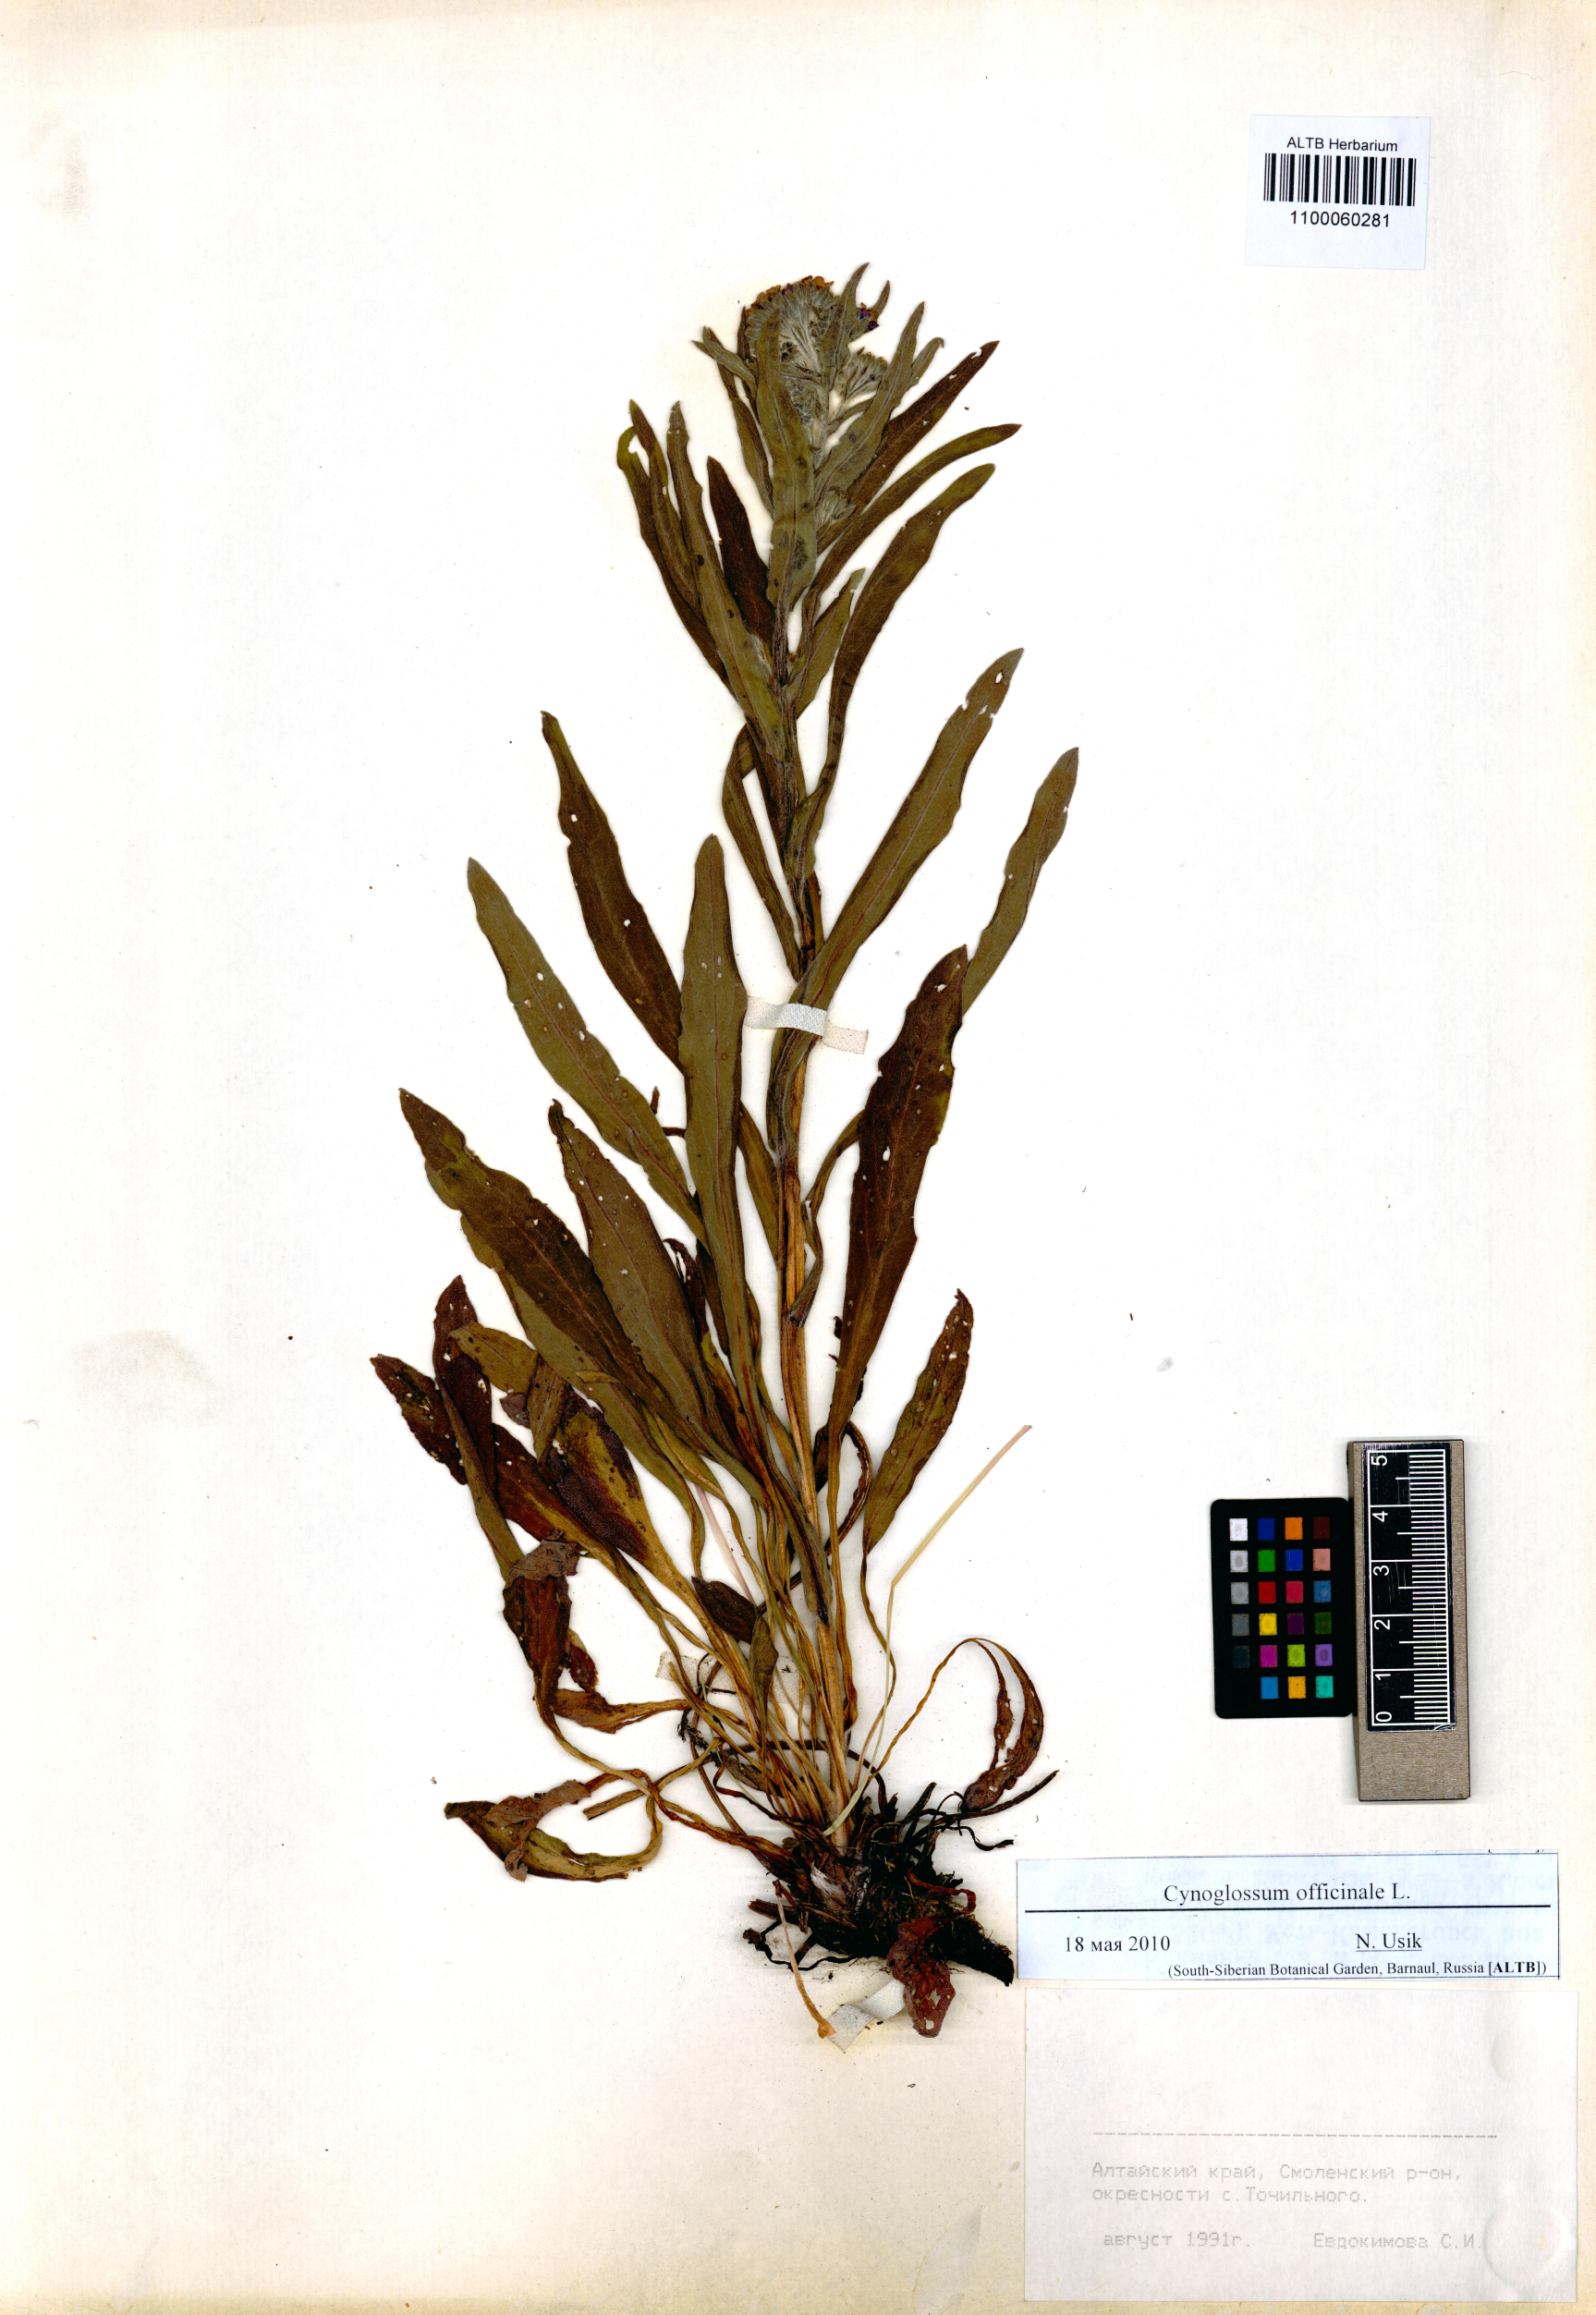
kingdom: Plantae
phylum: Tracheophyta
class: Magnoliopsida
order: Boraginales
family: Boraginaceae
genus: Cynoglossum
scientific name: Cynoglossum officinale
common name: Hound's-tongue
